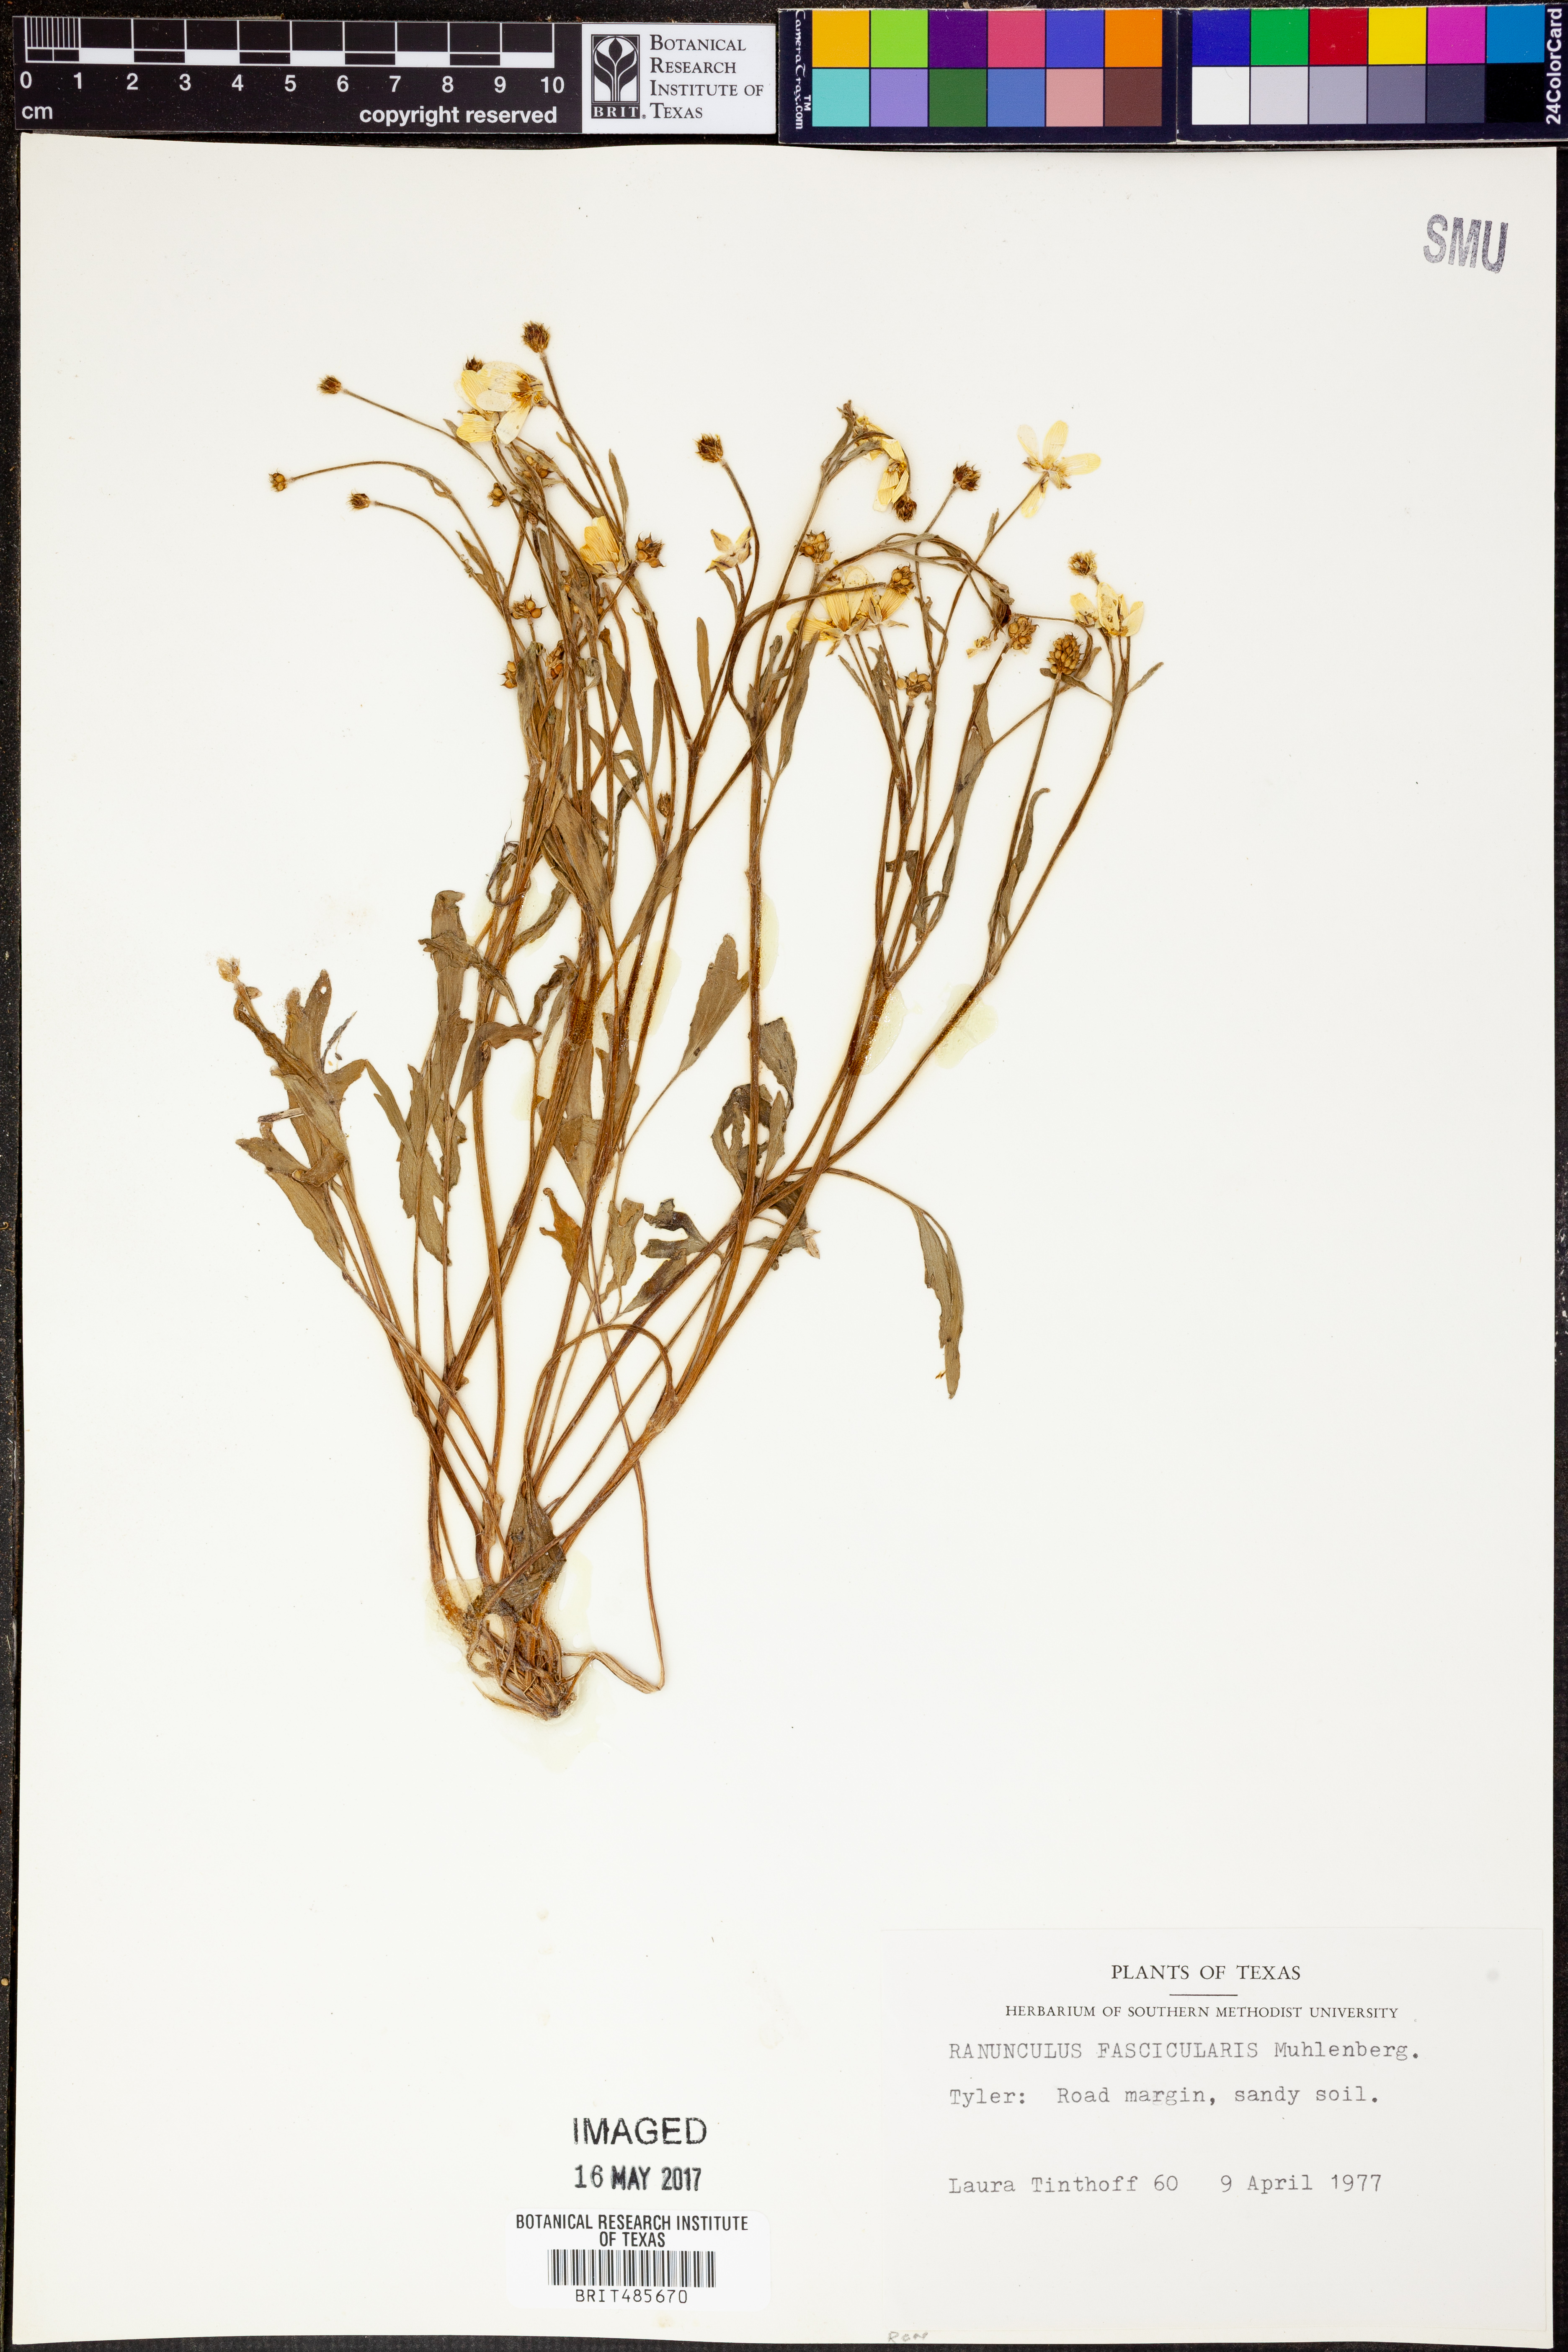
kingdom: Plantae
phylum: Tracheophyta
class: Magnoliopsida
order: Ranunculales
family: Ranunculaceae
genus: Ranunculus
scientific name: Ranunculus fascicularis
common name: Early buttercup
